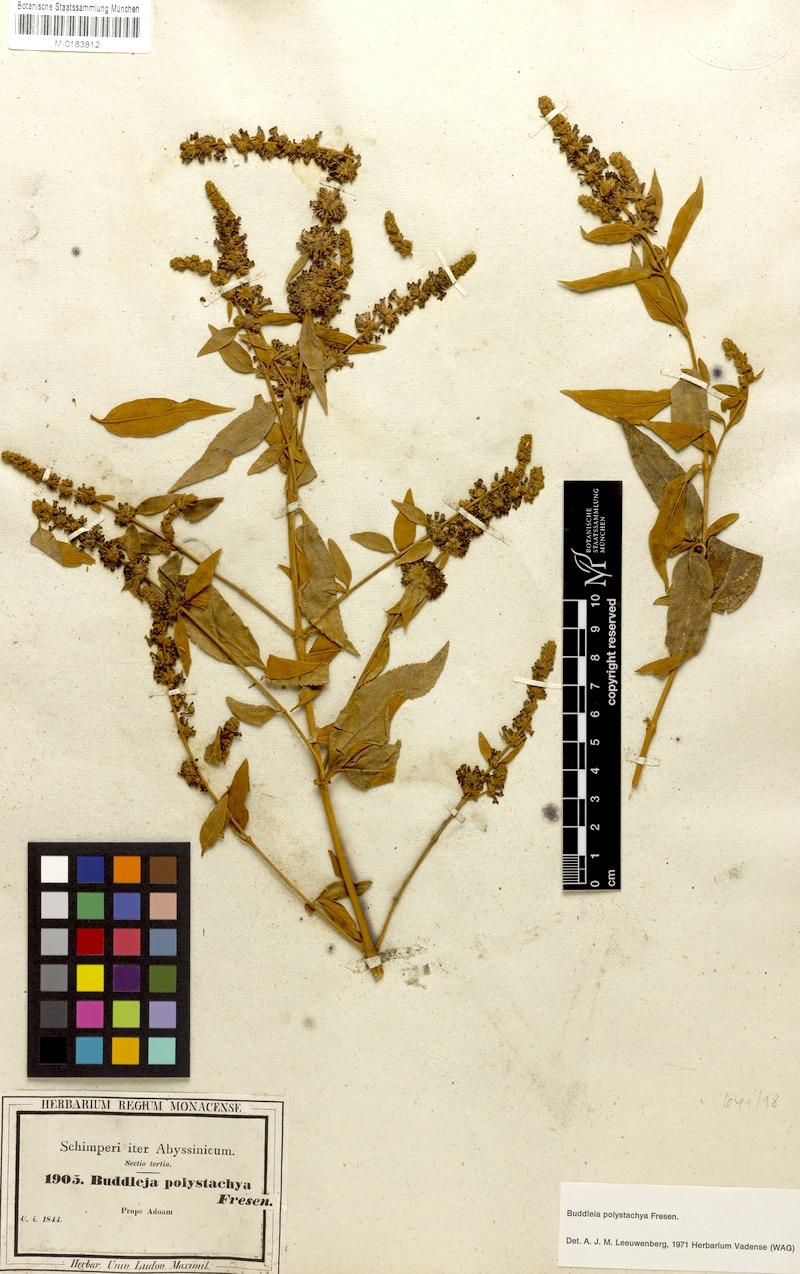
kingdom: Plantae
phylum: Tracheophyta
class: Magnoliopsida
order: Lamiales
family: Scrophulariaceae
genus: Buddleja
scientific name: Buddleja polystachya
